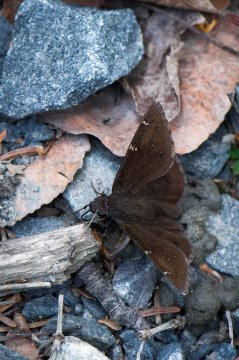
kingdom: Animalia
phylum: Arthropoda
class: Insecta
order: Lepidoptera
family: Hesperiidae
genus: Autochton
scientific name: Autochton
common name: Northern Cloudywing
